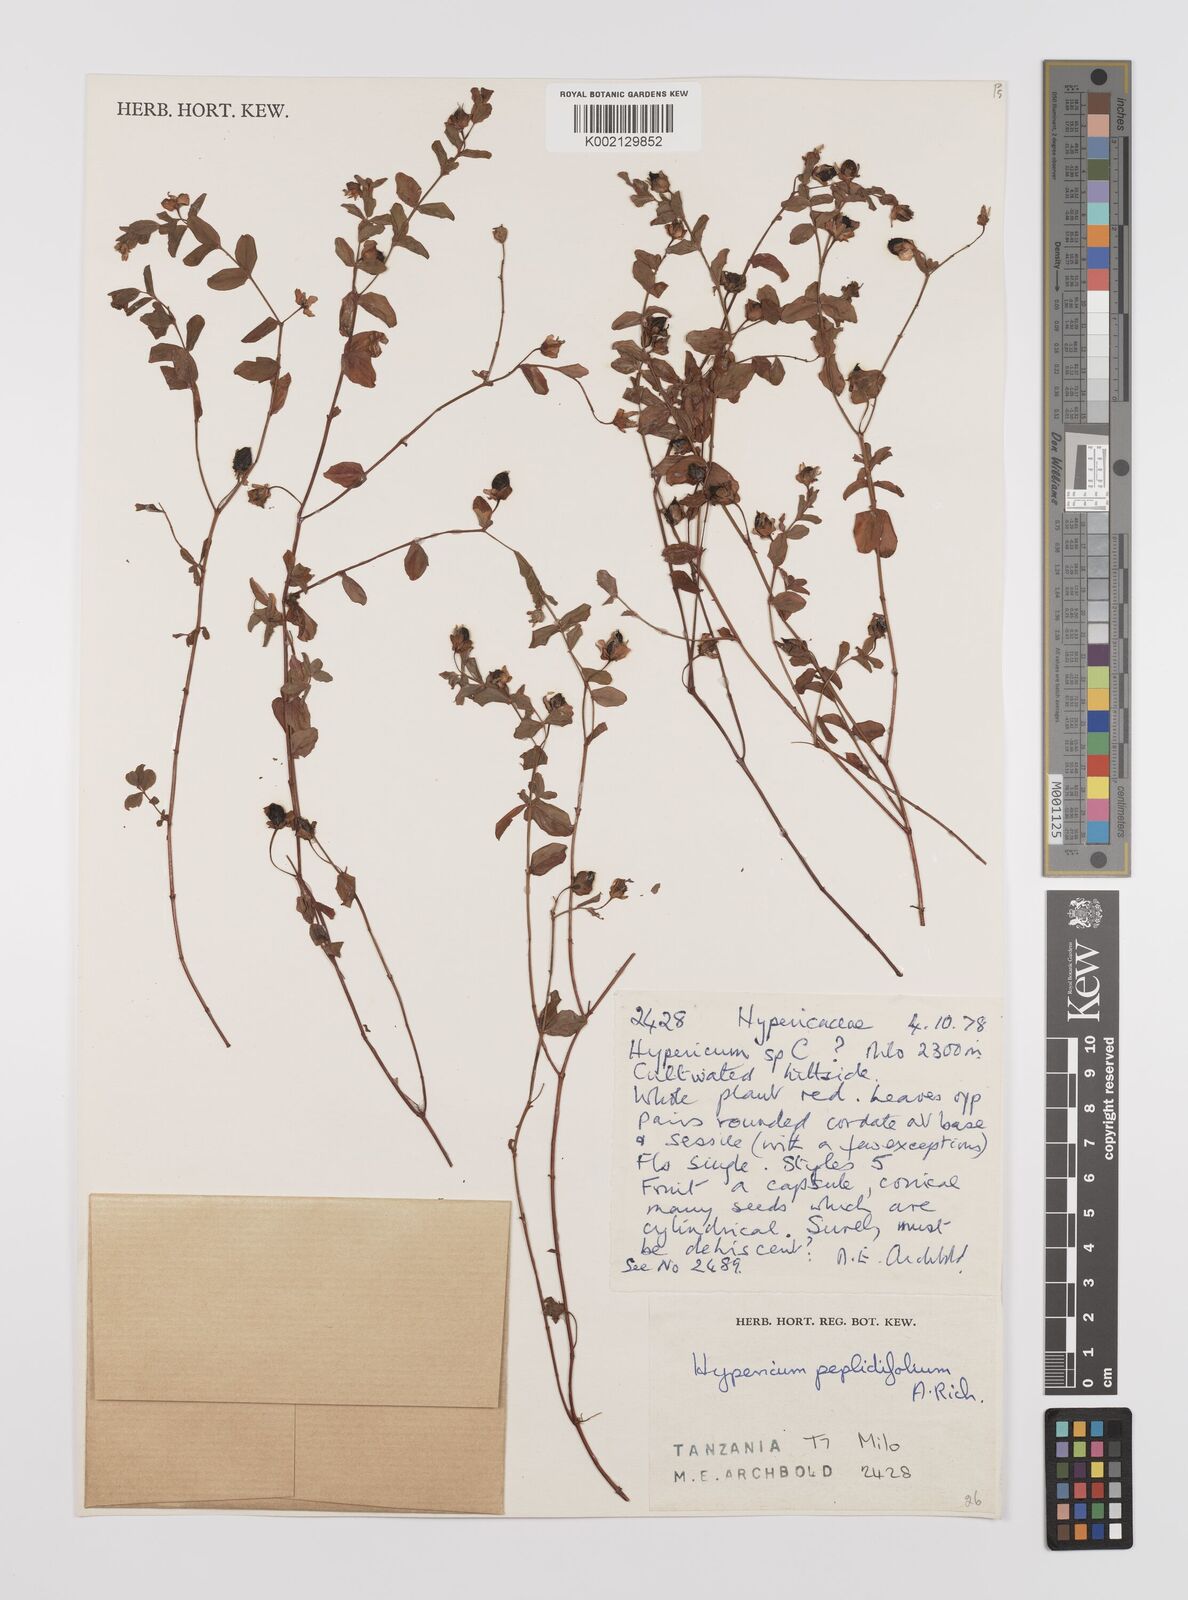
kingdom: Plantae
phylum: Tracheophyta
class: Magnoliopsida
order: Malpighiales
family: Hypericaceae
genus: Hypericum
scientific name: Hypericum peplidifolium
